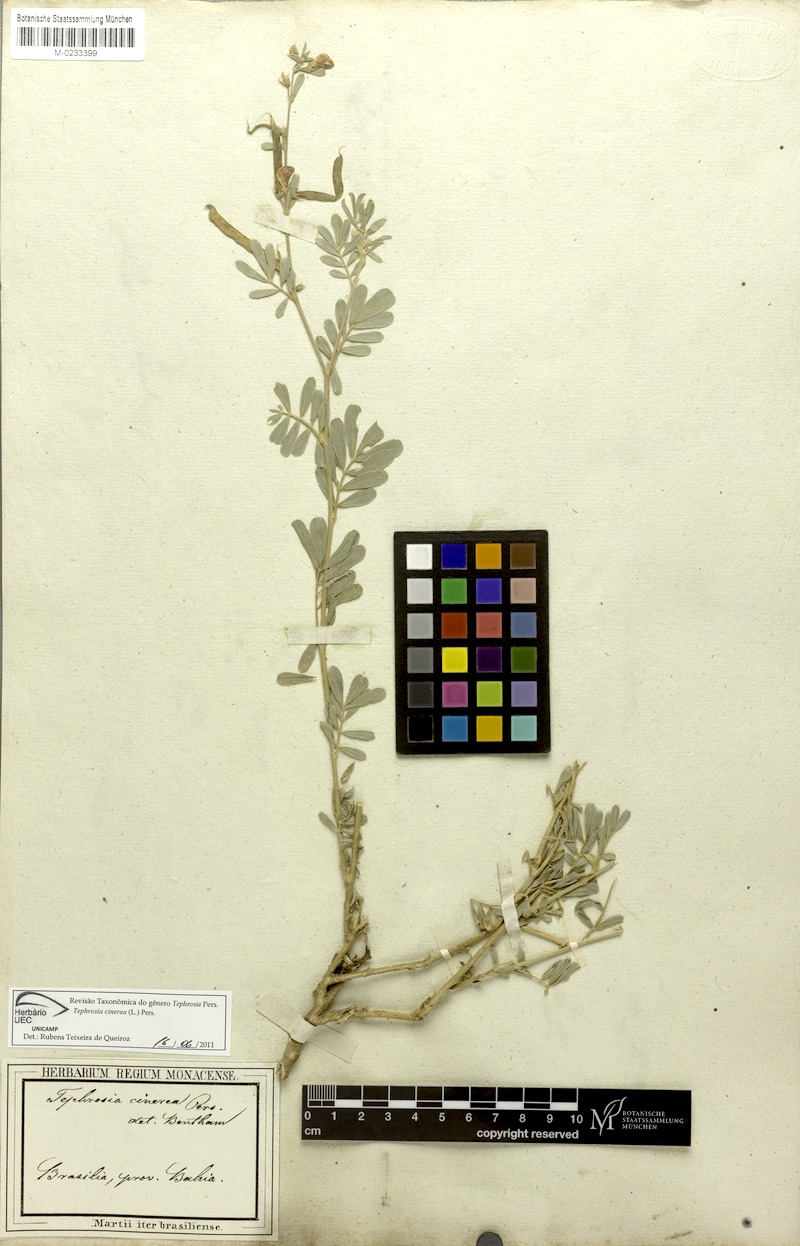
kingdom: Plantae
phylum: Tracheophyta
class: Magnoliopsida
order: Fabales
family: Fabaceae
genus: Tephrosia
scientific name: Tephrosia cinerea
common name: Ashen hoarypea
